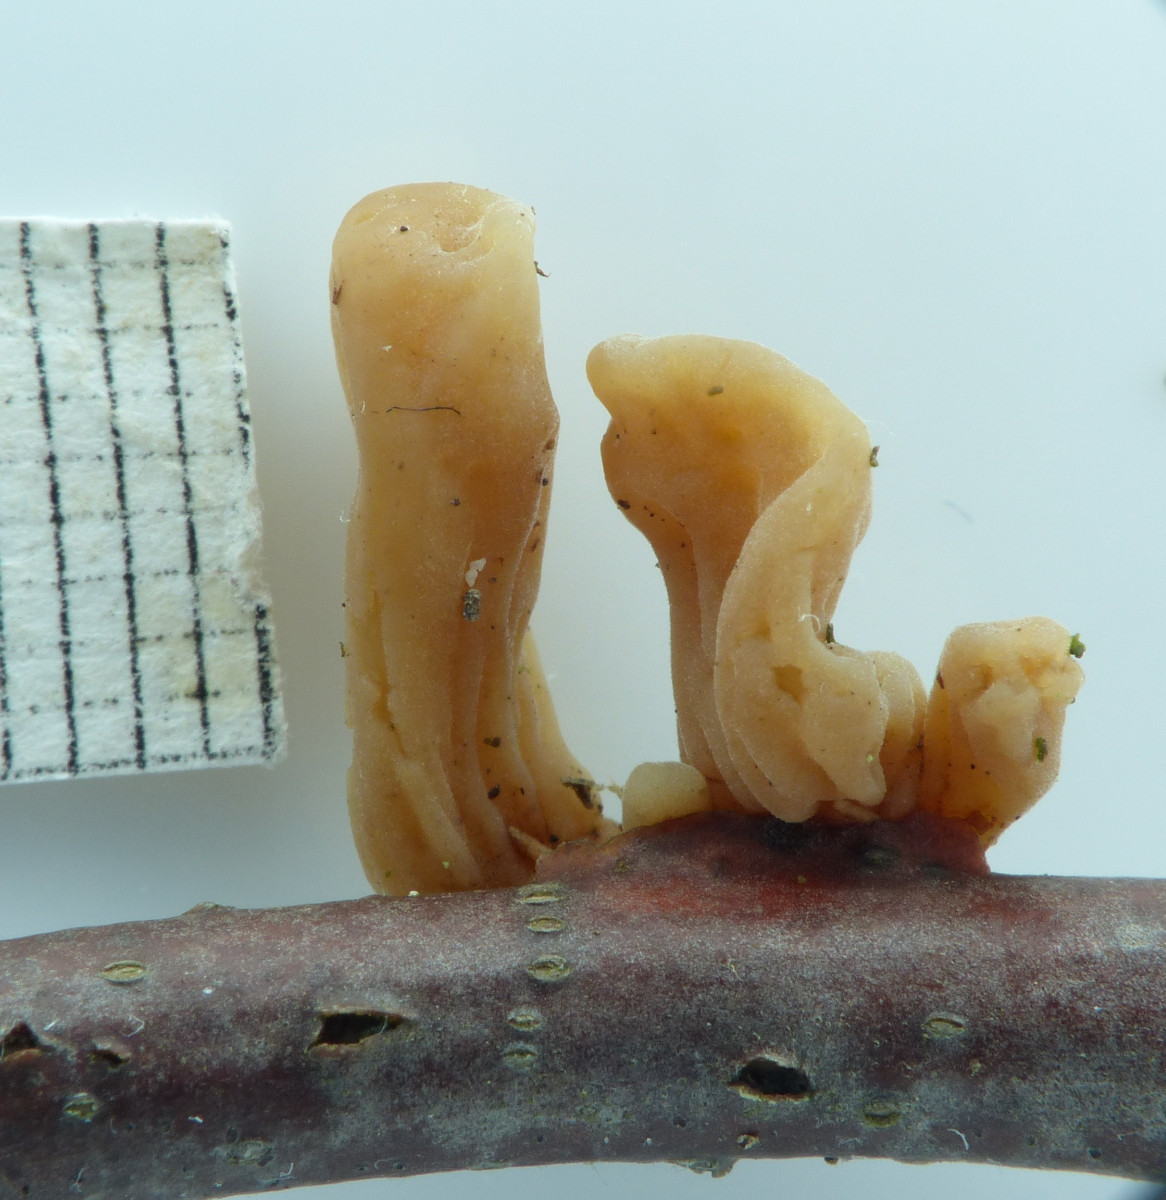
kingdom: Fungi
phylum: Basidiomycota
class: Agaricomycetes
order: Agaricales
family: Typhulaceae
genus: Typhula
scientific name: Typhula contorta
